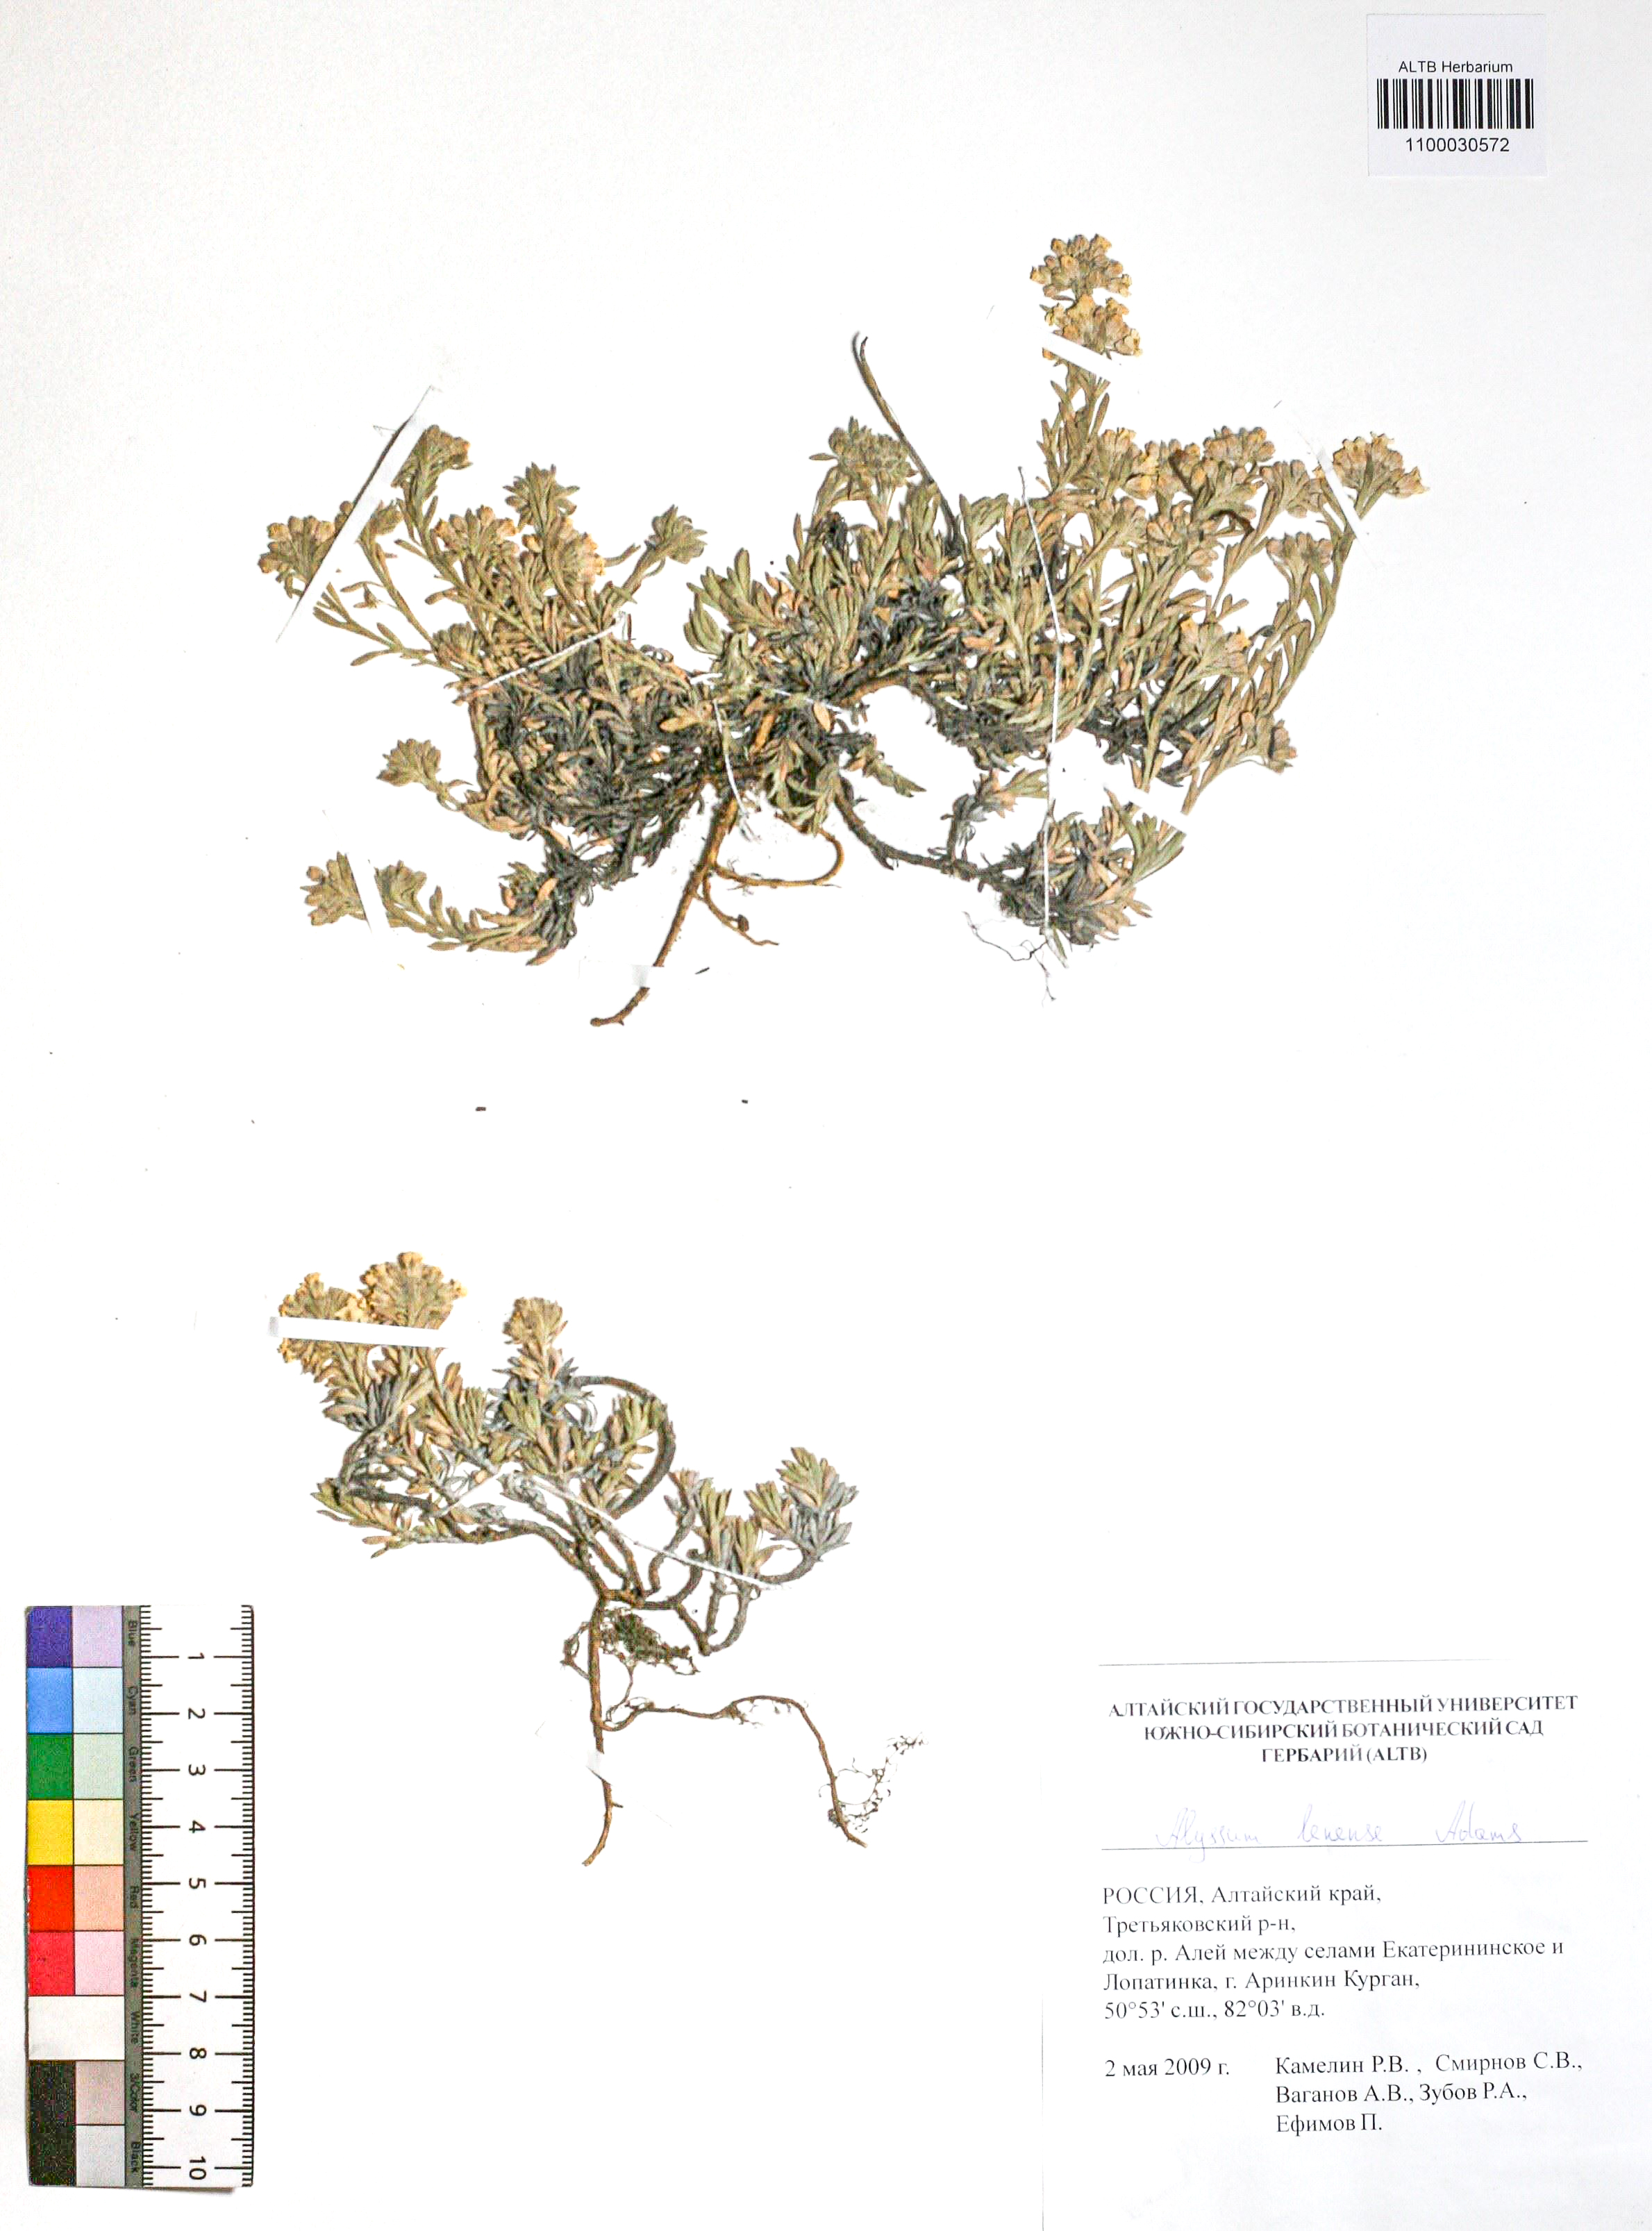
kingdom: Plantae
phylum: Tracheophyta
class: Magnoliopsida
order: Brassicales
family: Brassicaceae
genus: Alyssum
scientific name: Alyssum lenense
